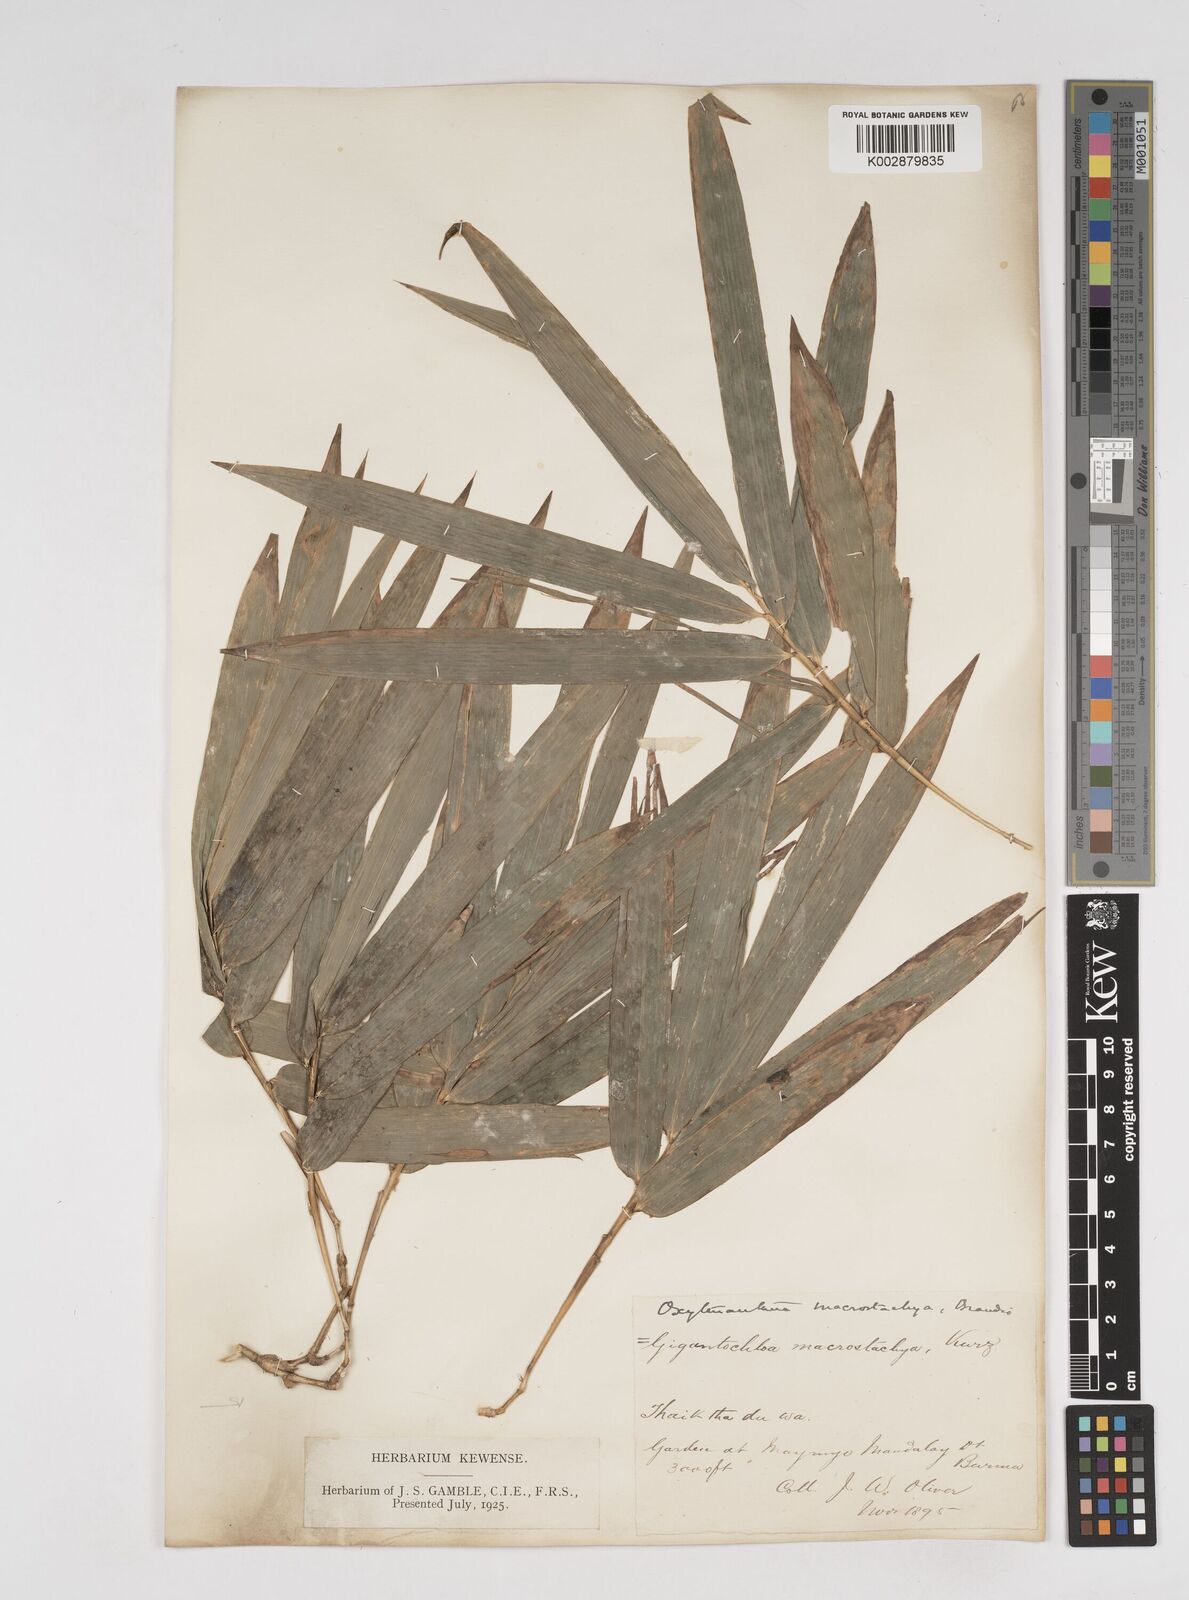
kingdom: Plantae
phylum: Tracheophyta
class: Liliopsida
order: Poales
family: Poaceae
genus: Gigantochloa
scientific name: Gigantochloa macrostachya
